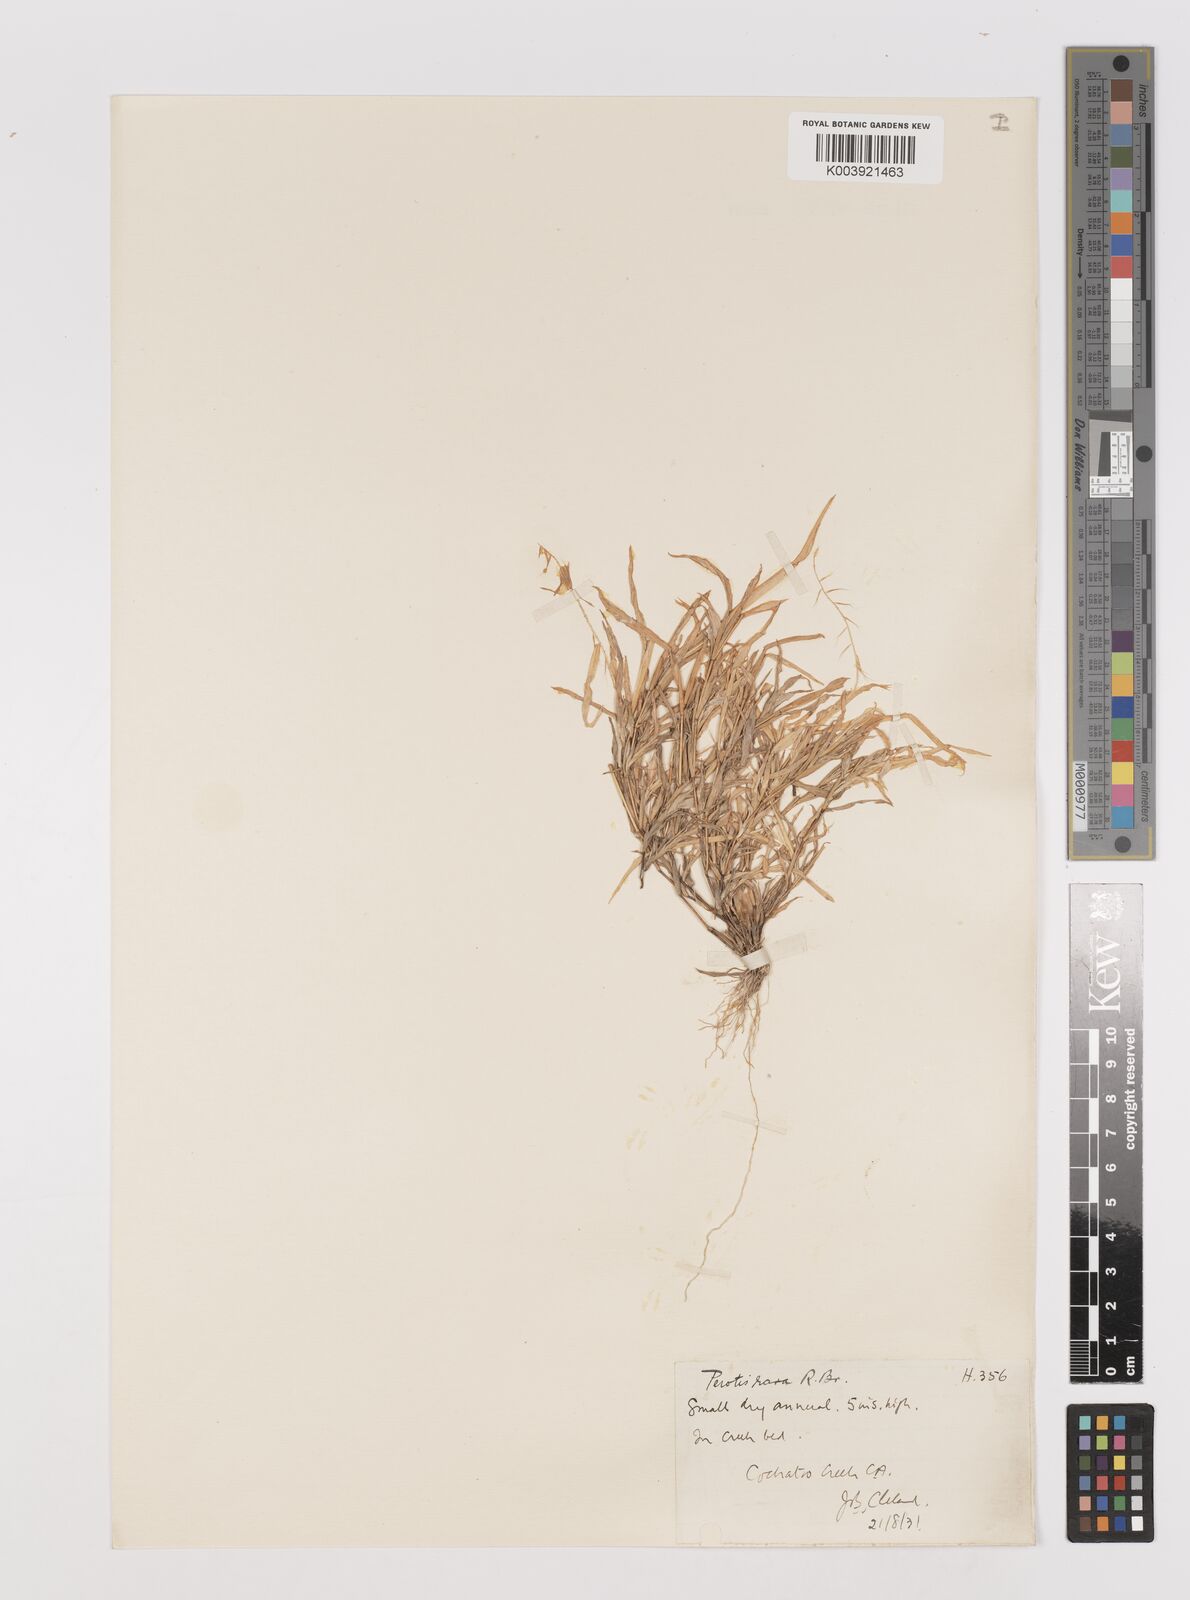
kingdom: Plantae
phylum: Tracheophyta
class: Liliopsida
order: Poales
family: Poaceae
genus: Perotis
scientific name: Perotis rara
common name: Comet grass
